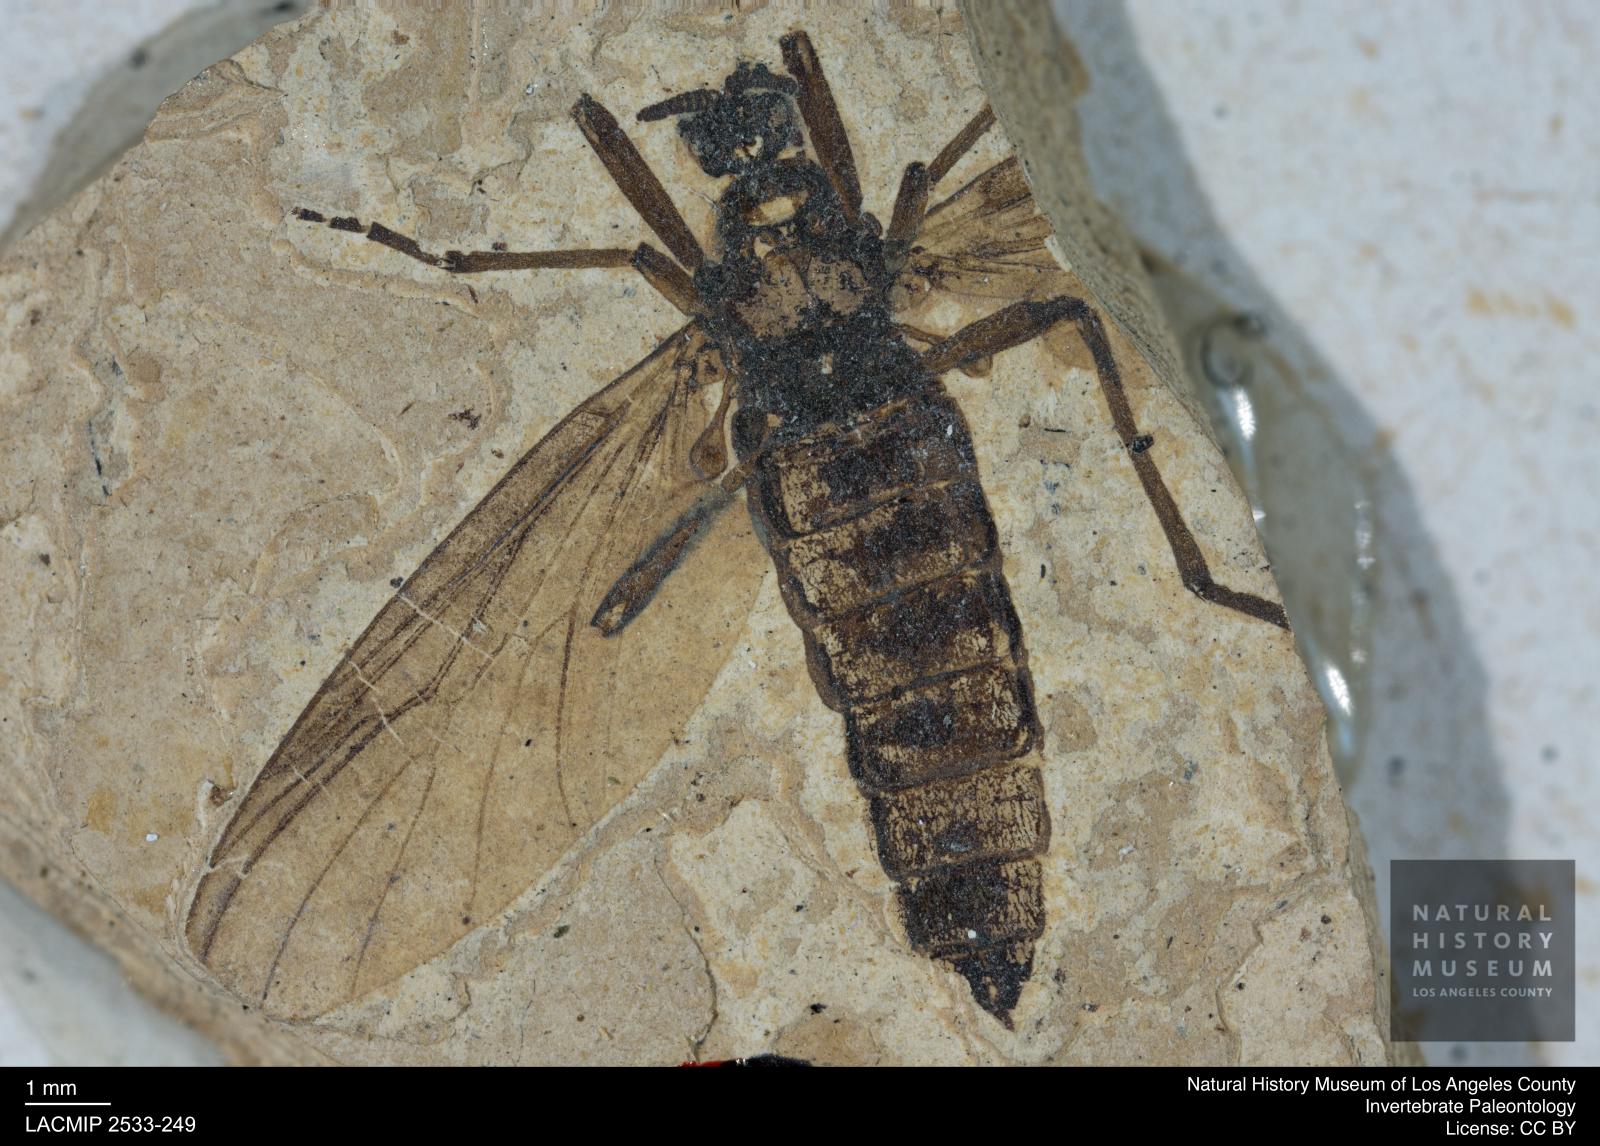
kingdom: Animalia
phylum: Arthropoda
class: Insecta
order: Diptera
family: Bibionidae
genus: Penthetria
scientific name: Penthetria aestimata
